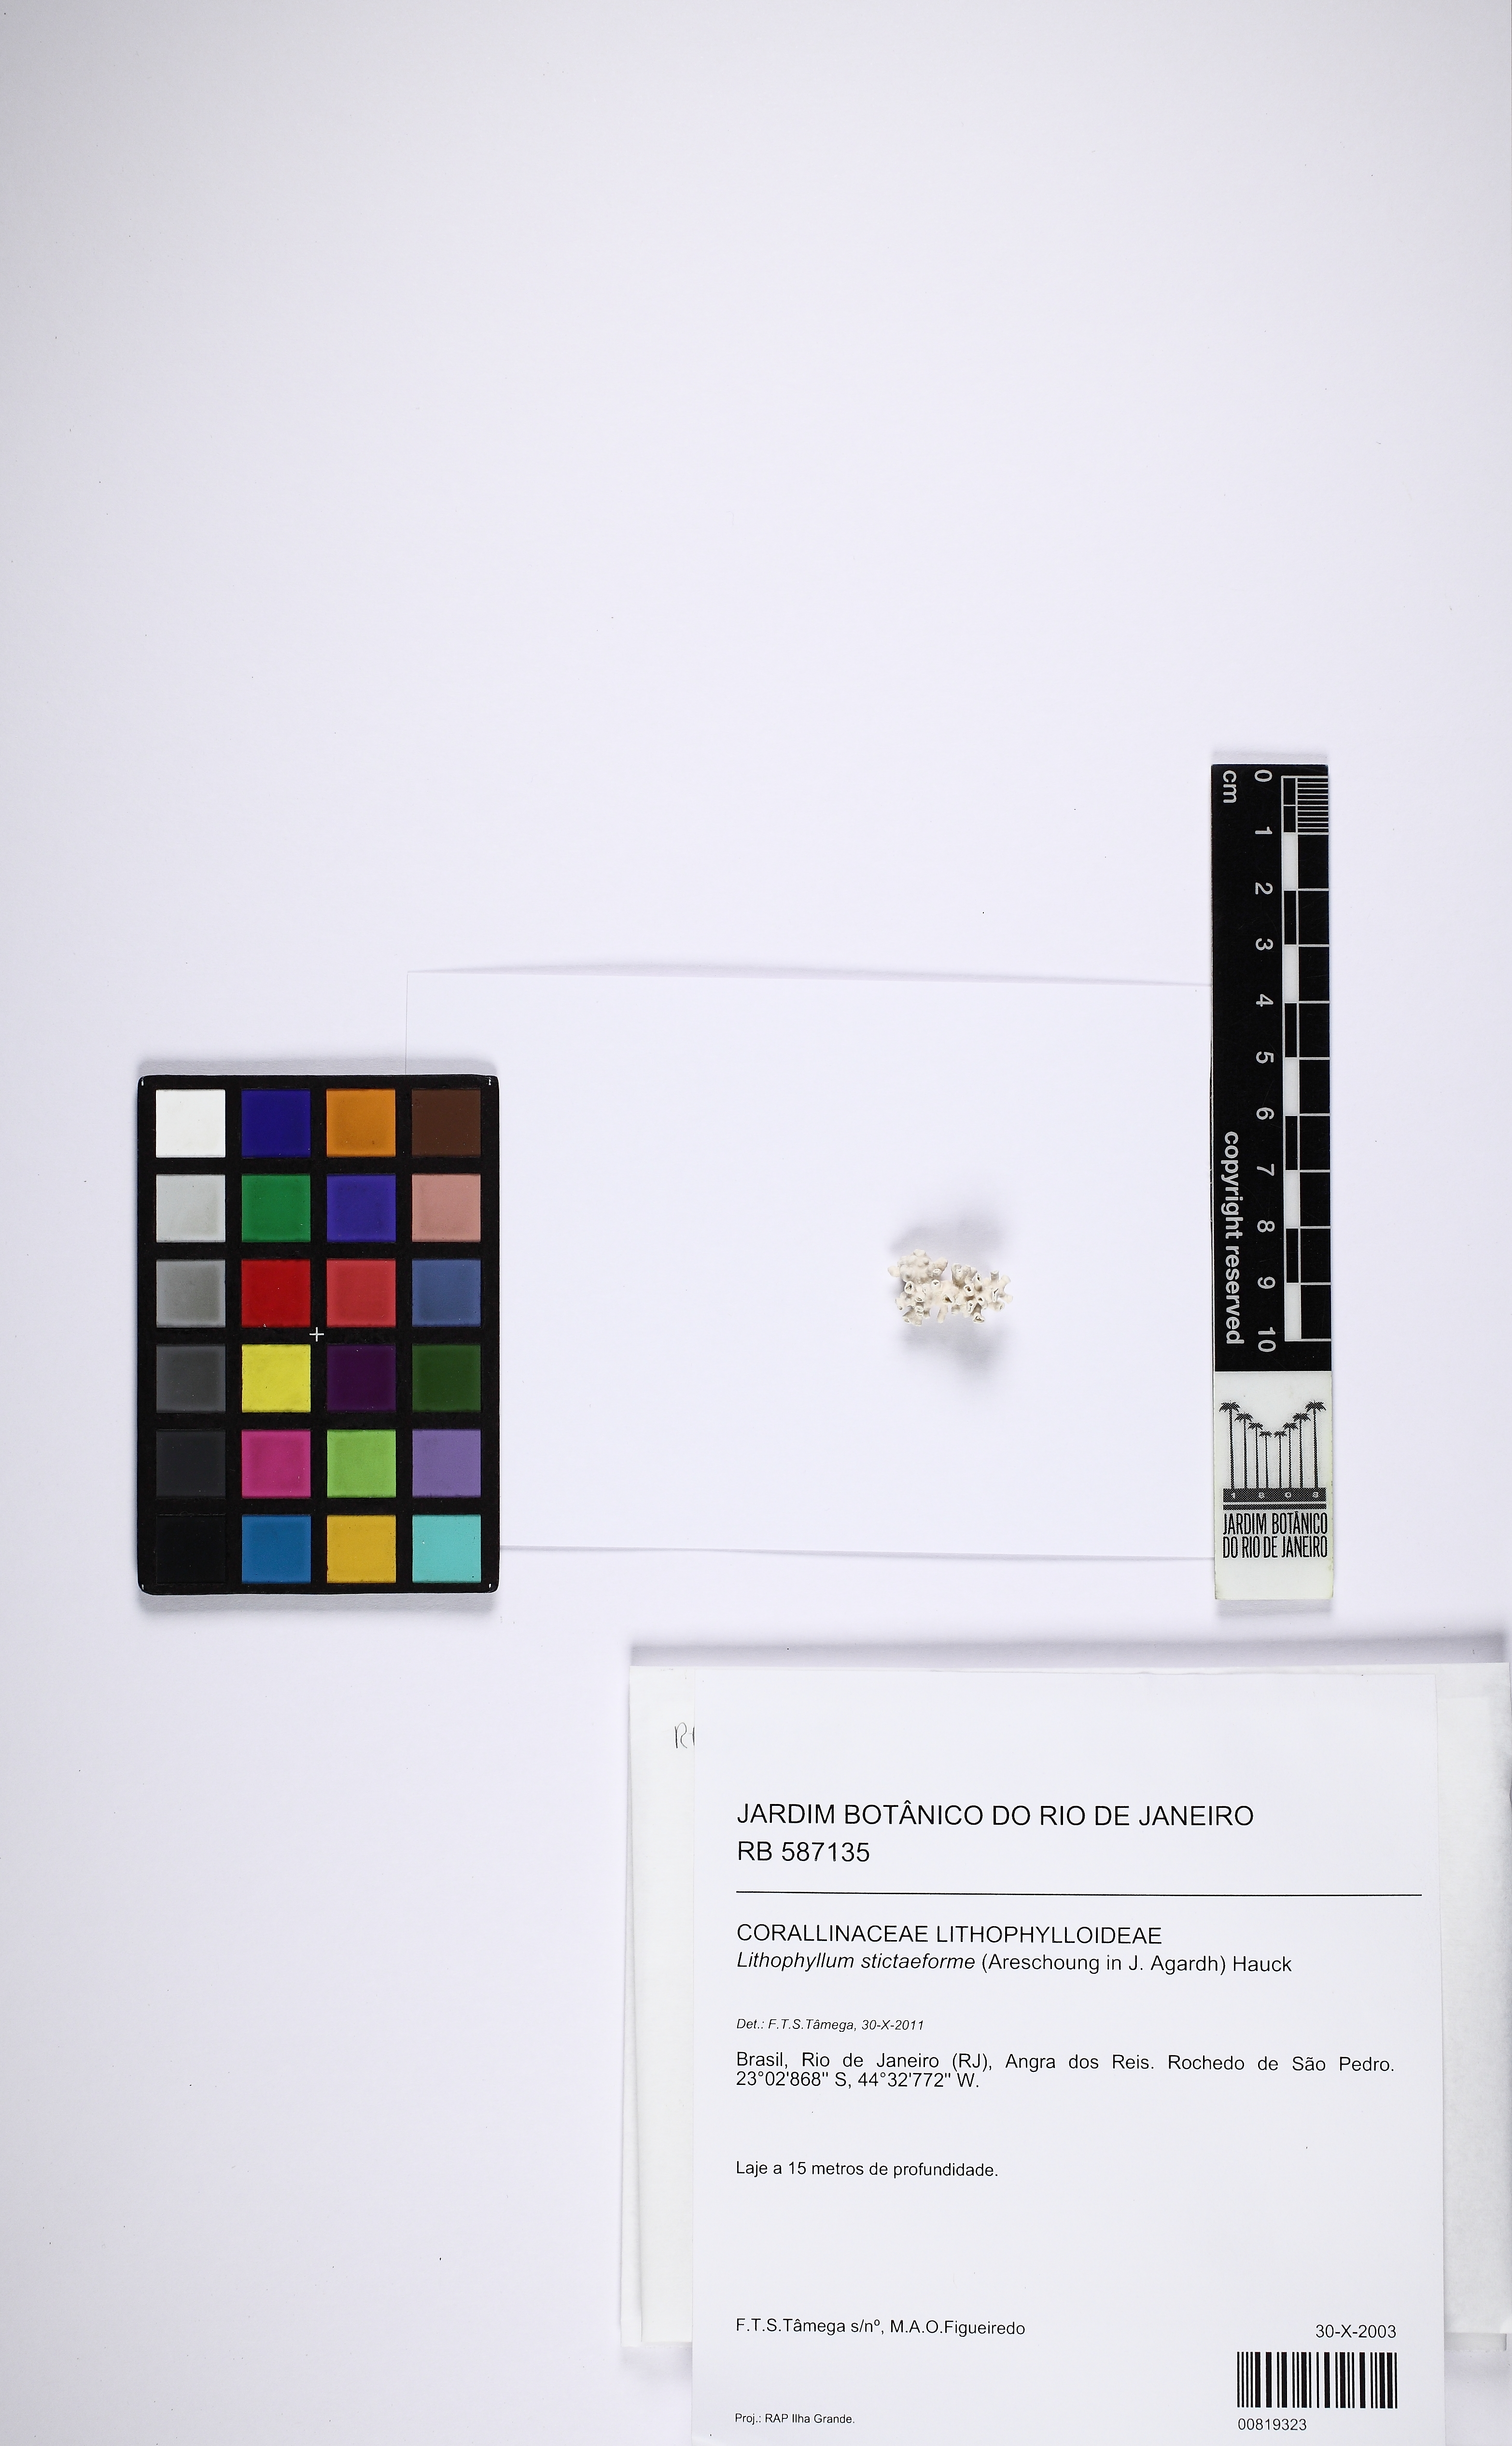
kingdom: Plantae
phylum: Rhodophyta
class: Florideophyceae
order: Corallinales
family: Lithophyllaceae
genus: Lithophyllum
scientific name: Lithophyllum stictaeforme
